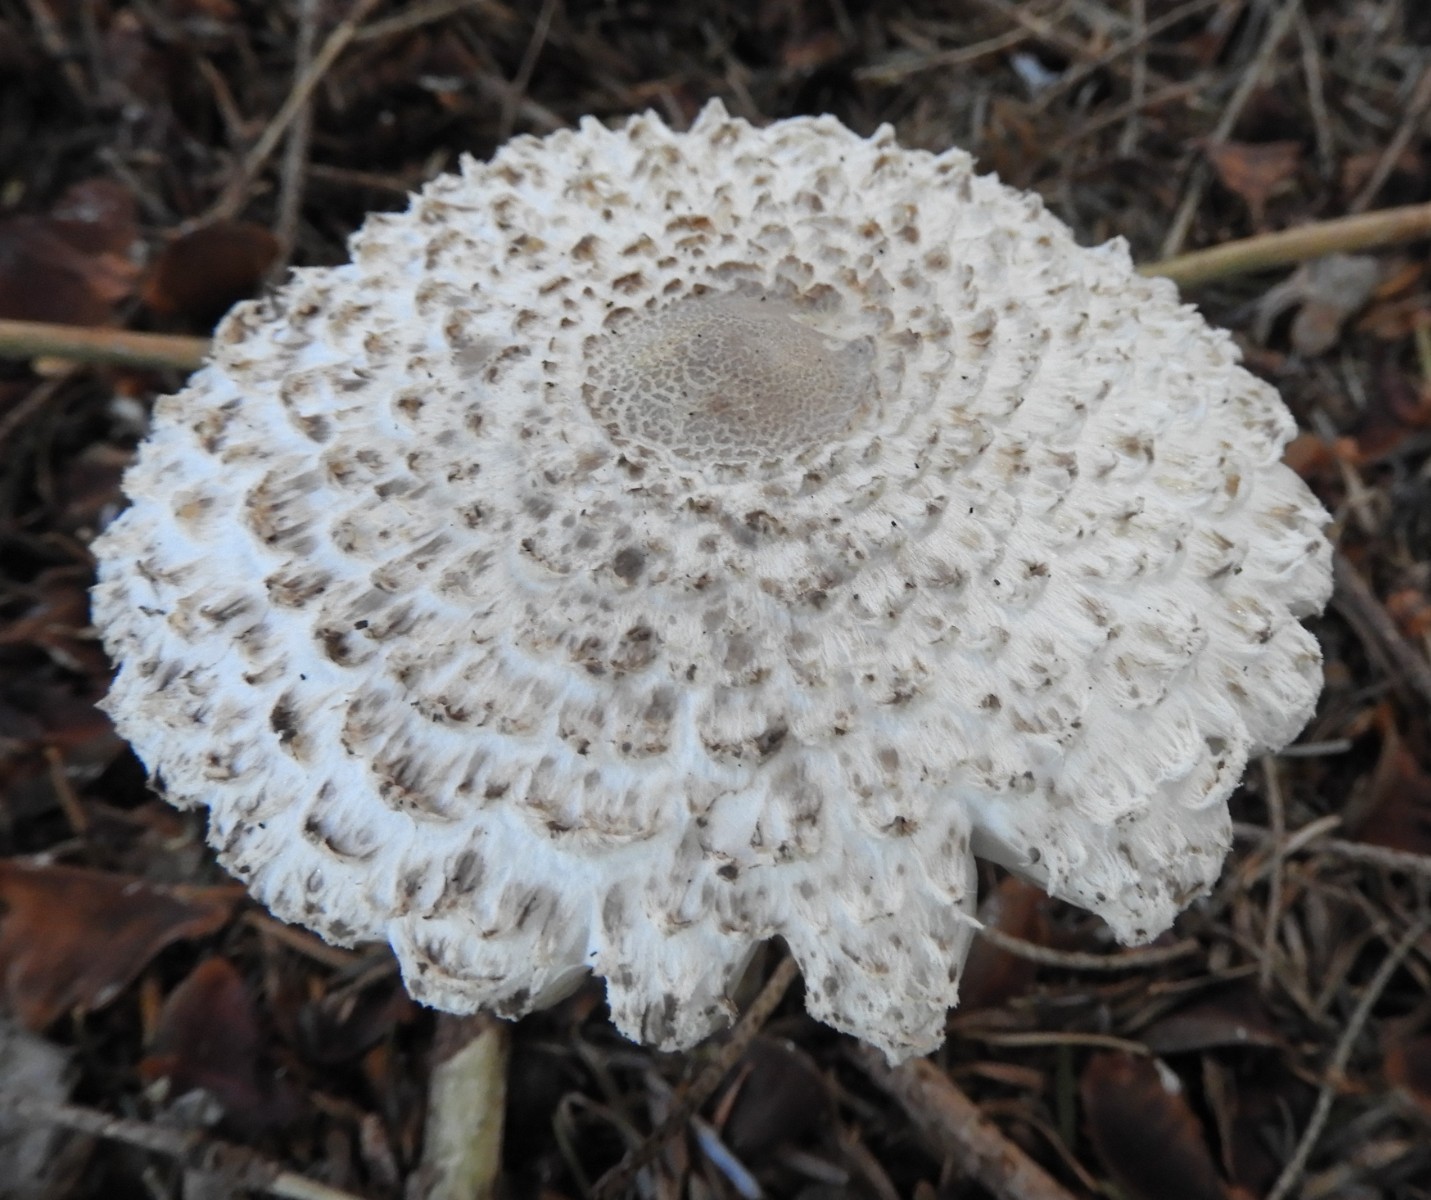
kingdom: Fungi
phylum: Basidiomycota
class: Agaricomycetes
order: Agaricales
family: Agaricaceae
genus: Leucoagaricus
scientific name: Leucoagaricus nympharum
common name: gran-silkehat
